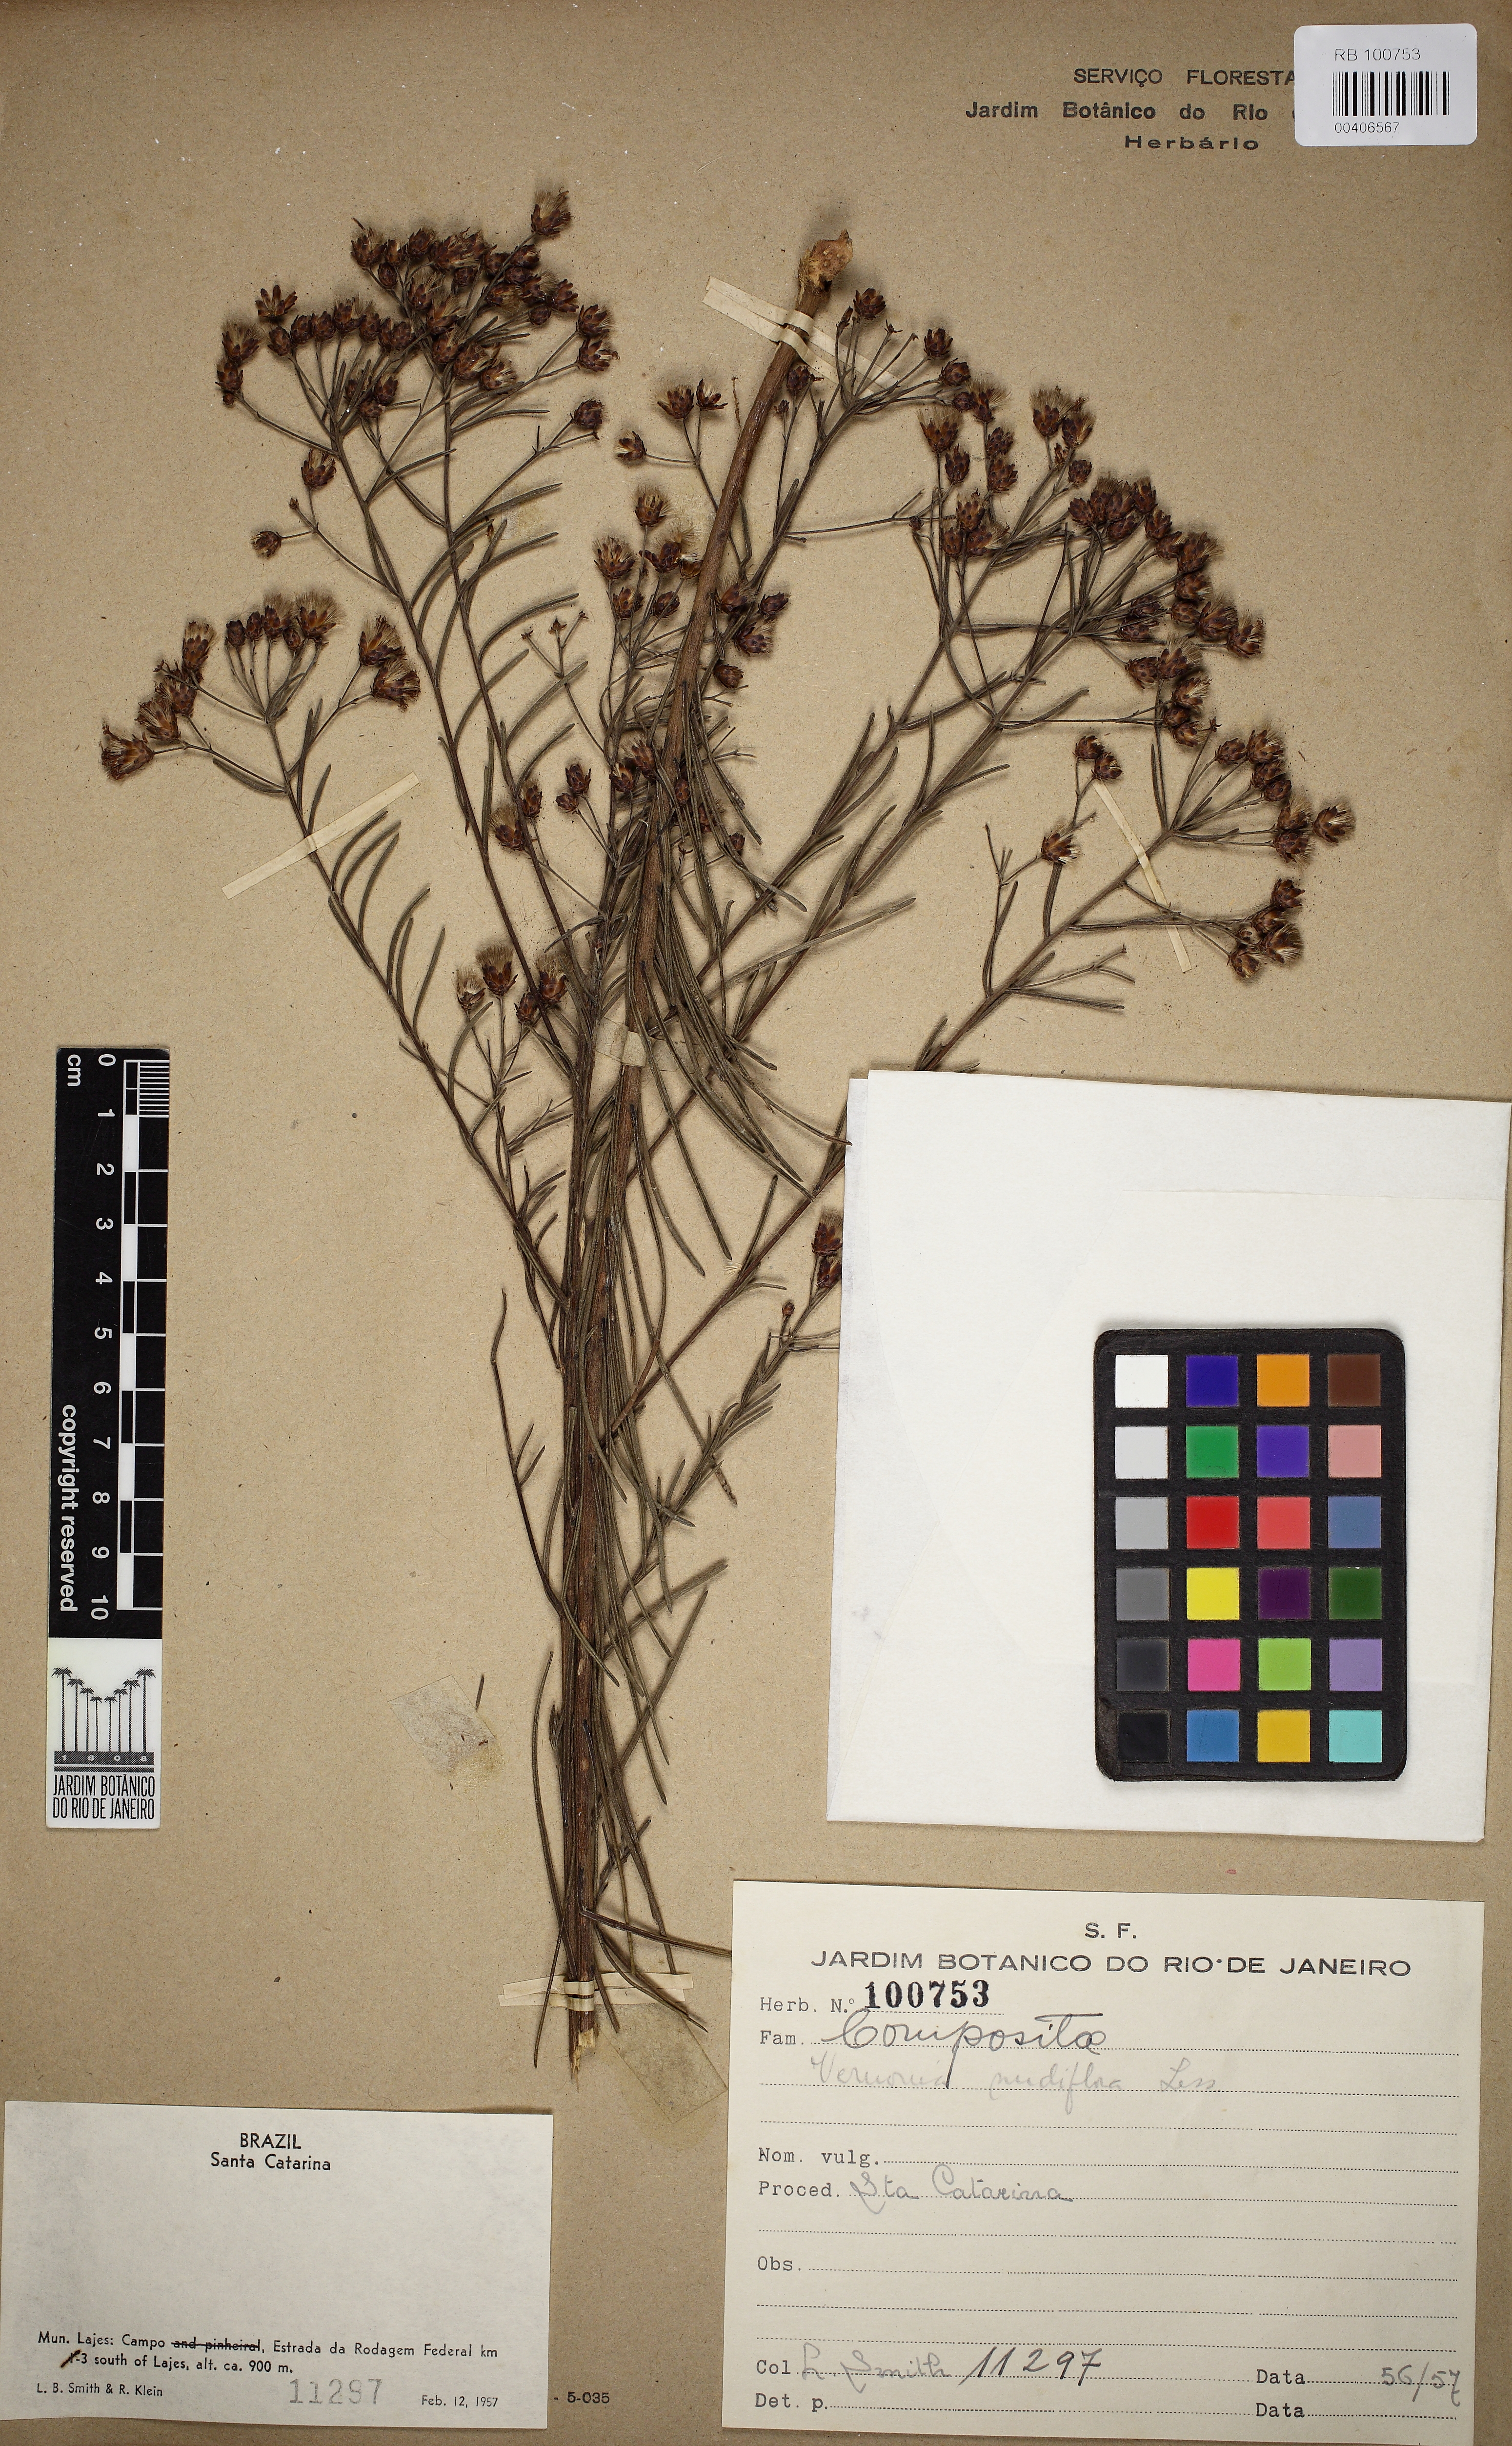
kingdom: Plantae
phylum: Tracheophyta
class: Magnoliopsida
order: Asterales
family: Asteraceae
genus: Vernonanthura
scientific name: Vernonanthura nudiflora
